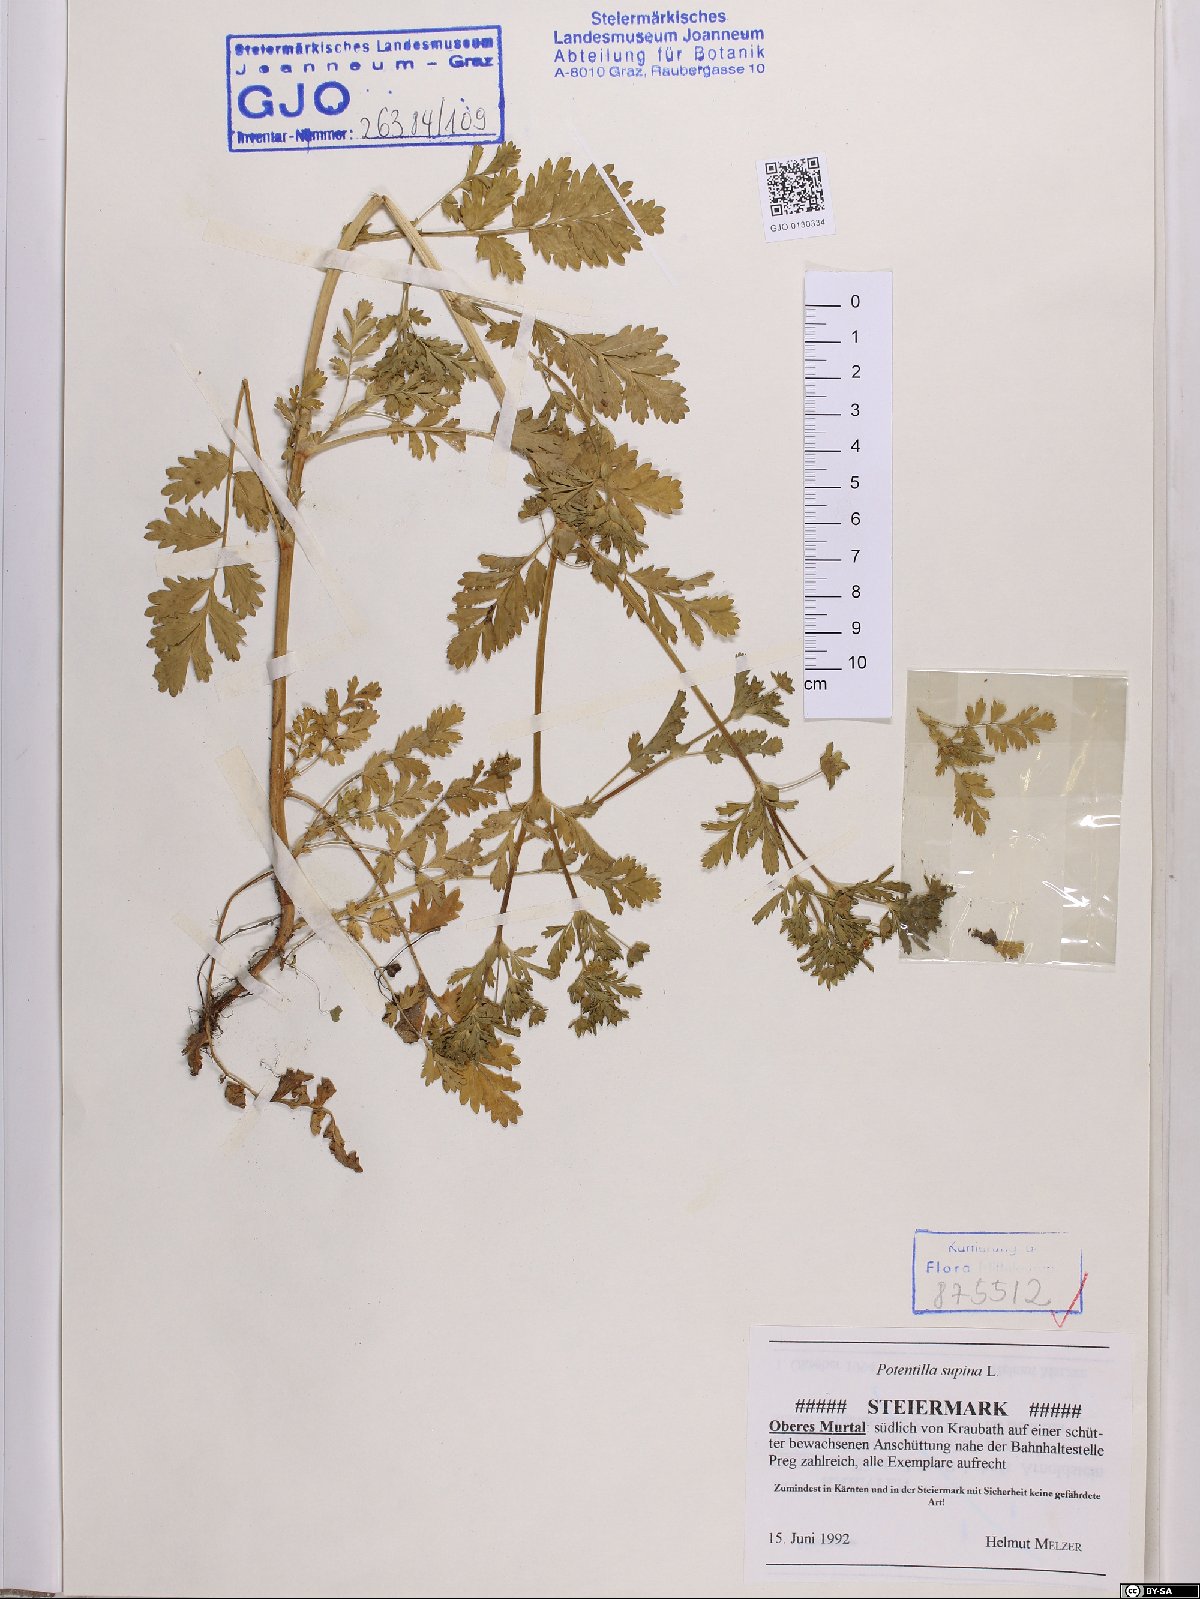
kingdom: Plantae
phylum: Tracheophyta
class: Magnoliopsida
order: Rosales
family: Rosaceae
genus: Potentilla
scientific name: Potentilla supina
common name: Prostrate cinquefoil
